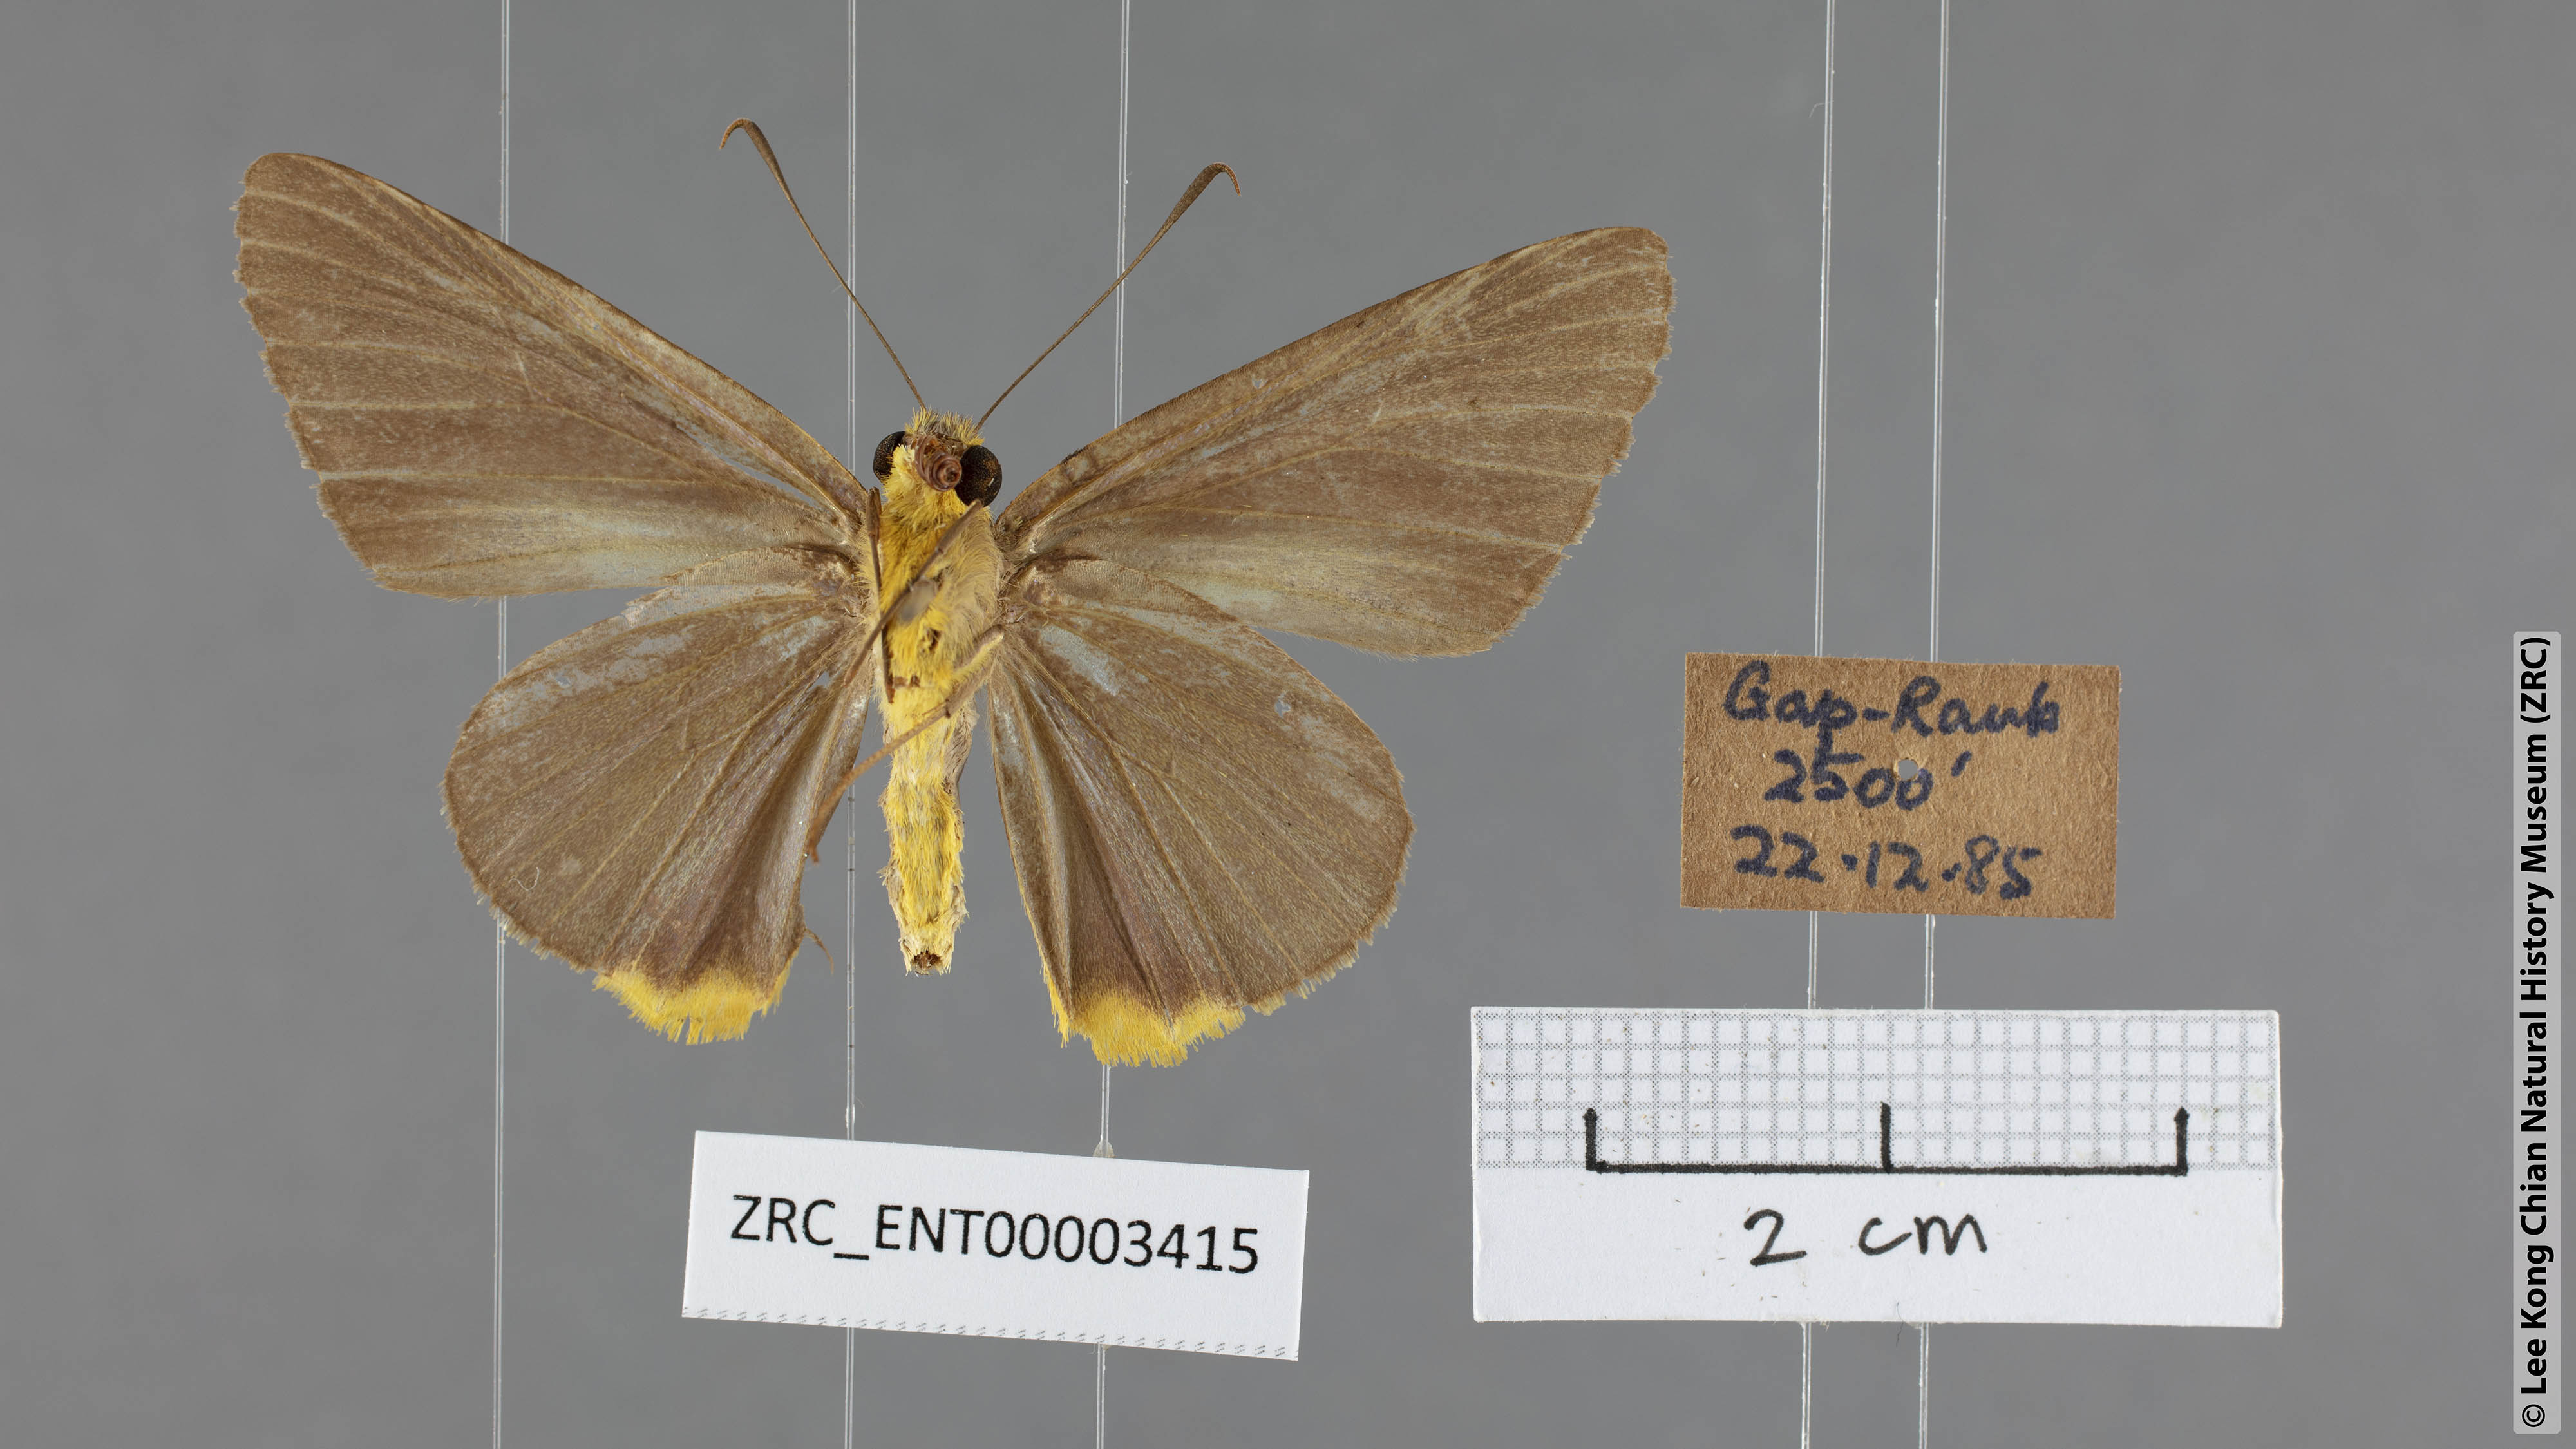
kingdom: Animalia
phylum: Arthropoda
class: Insecta
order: Lepidoptera
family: Hesperiidae
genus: Pirdana
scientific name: Pirdana distanti
